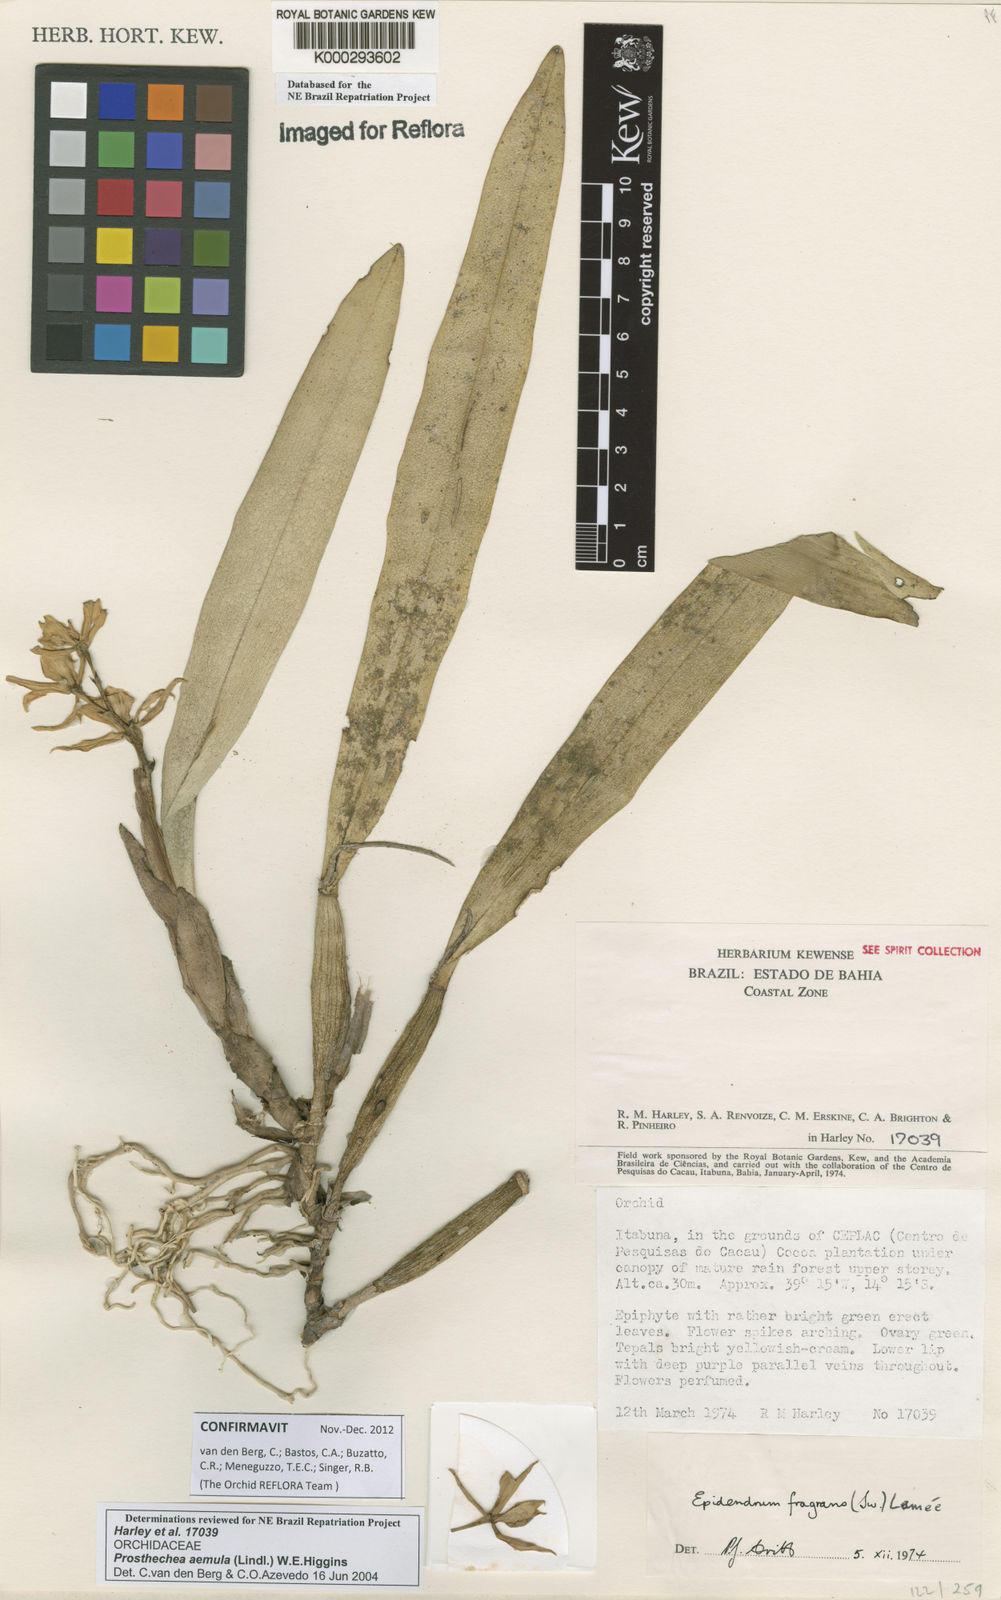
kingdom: Plantae
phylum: Tracheophyta
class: Liliopsida
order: Asparagales
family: Orchidaceae
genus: Prosthechea
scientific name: Prosthechea aemula
